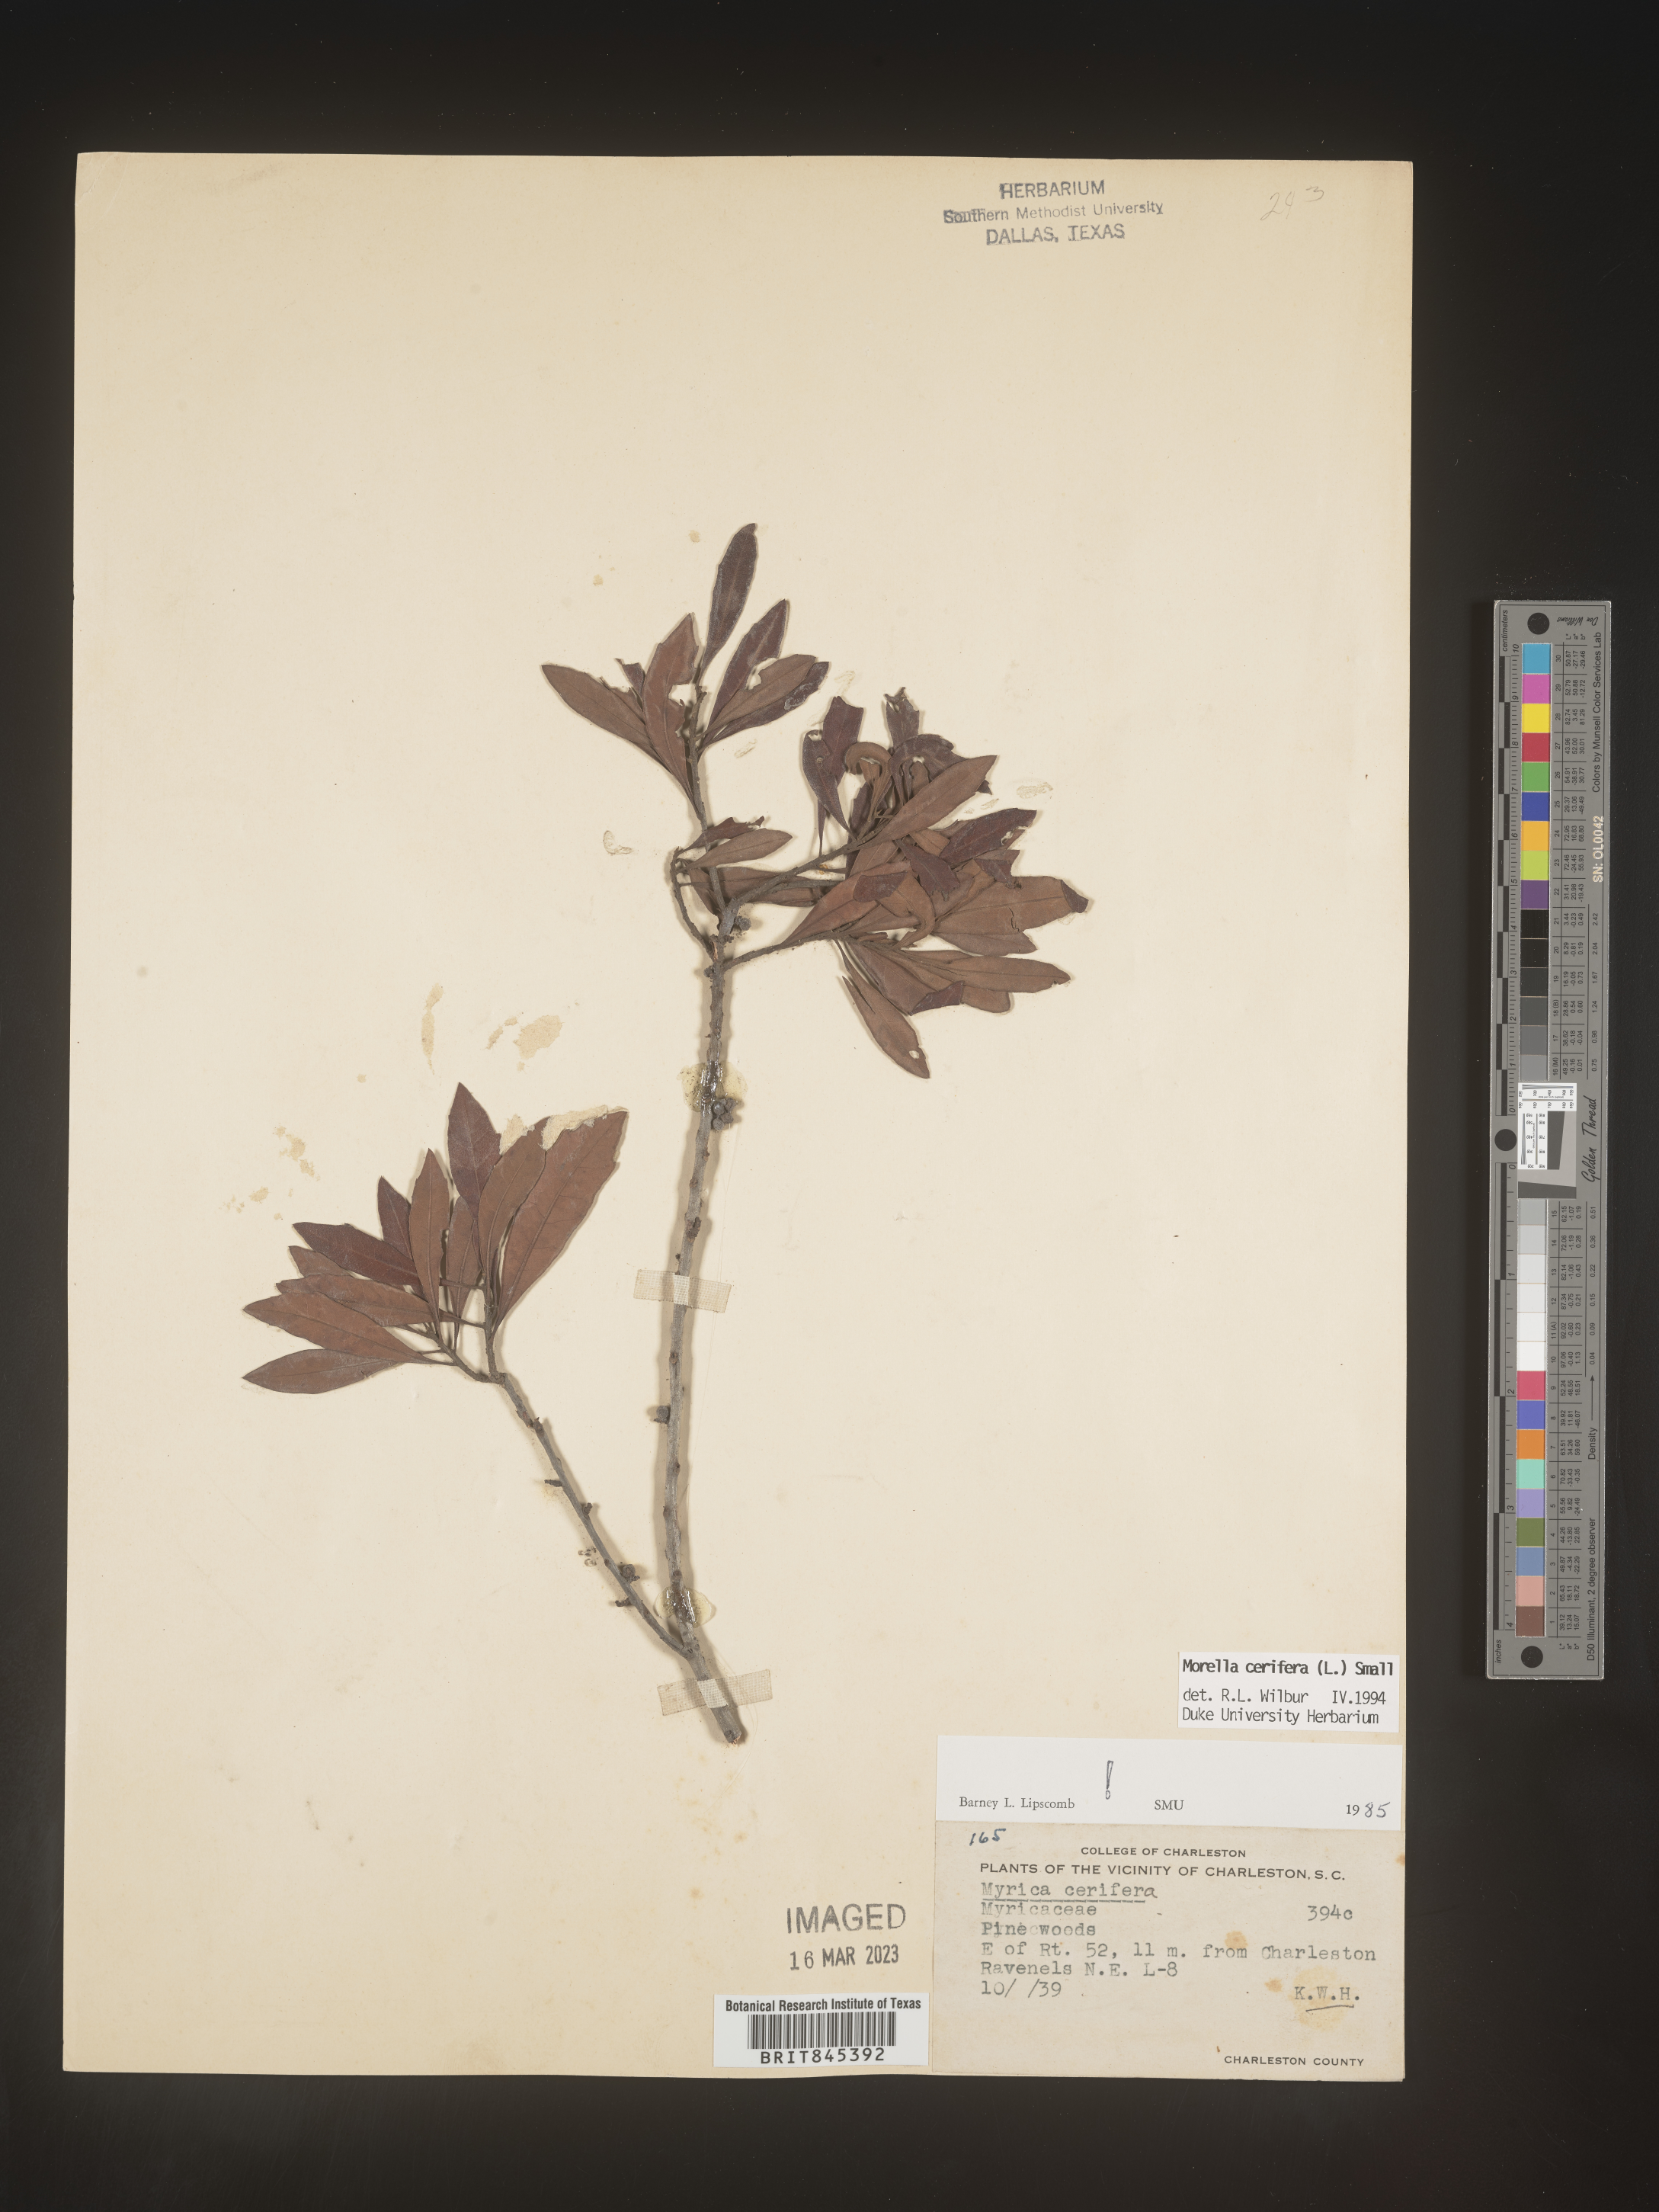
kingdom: Plantae
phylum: Tracheophyta
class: Magnoliopsida
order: Fagales
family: Myricaceae
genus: Morella
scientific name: Morella cerifera
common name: Wax myrtle
